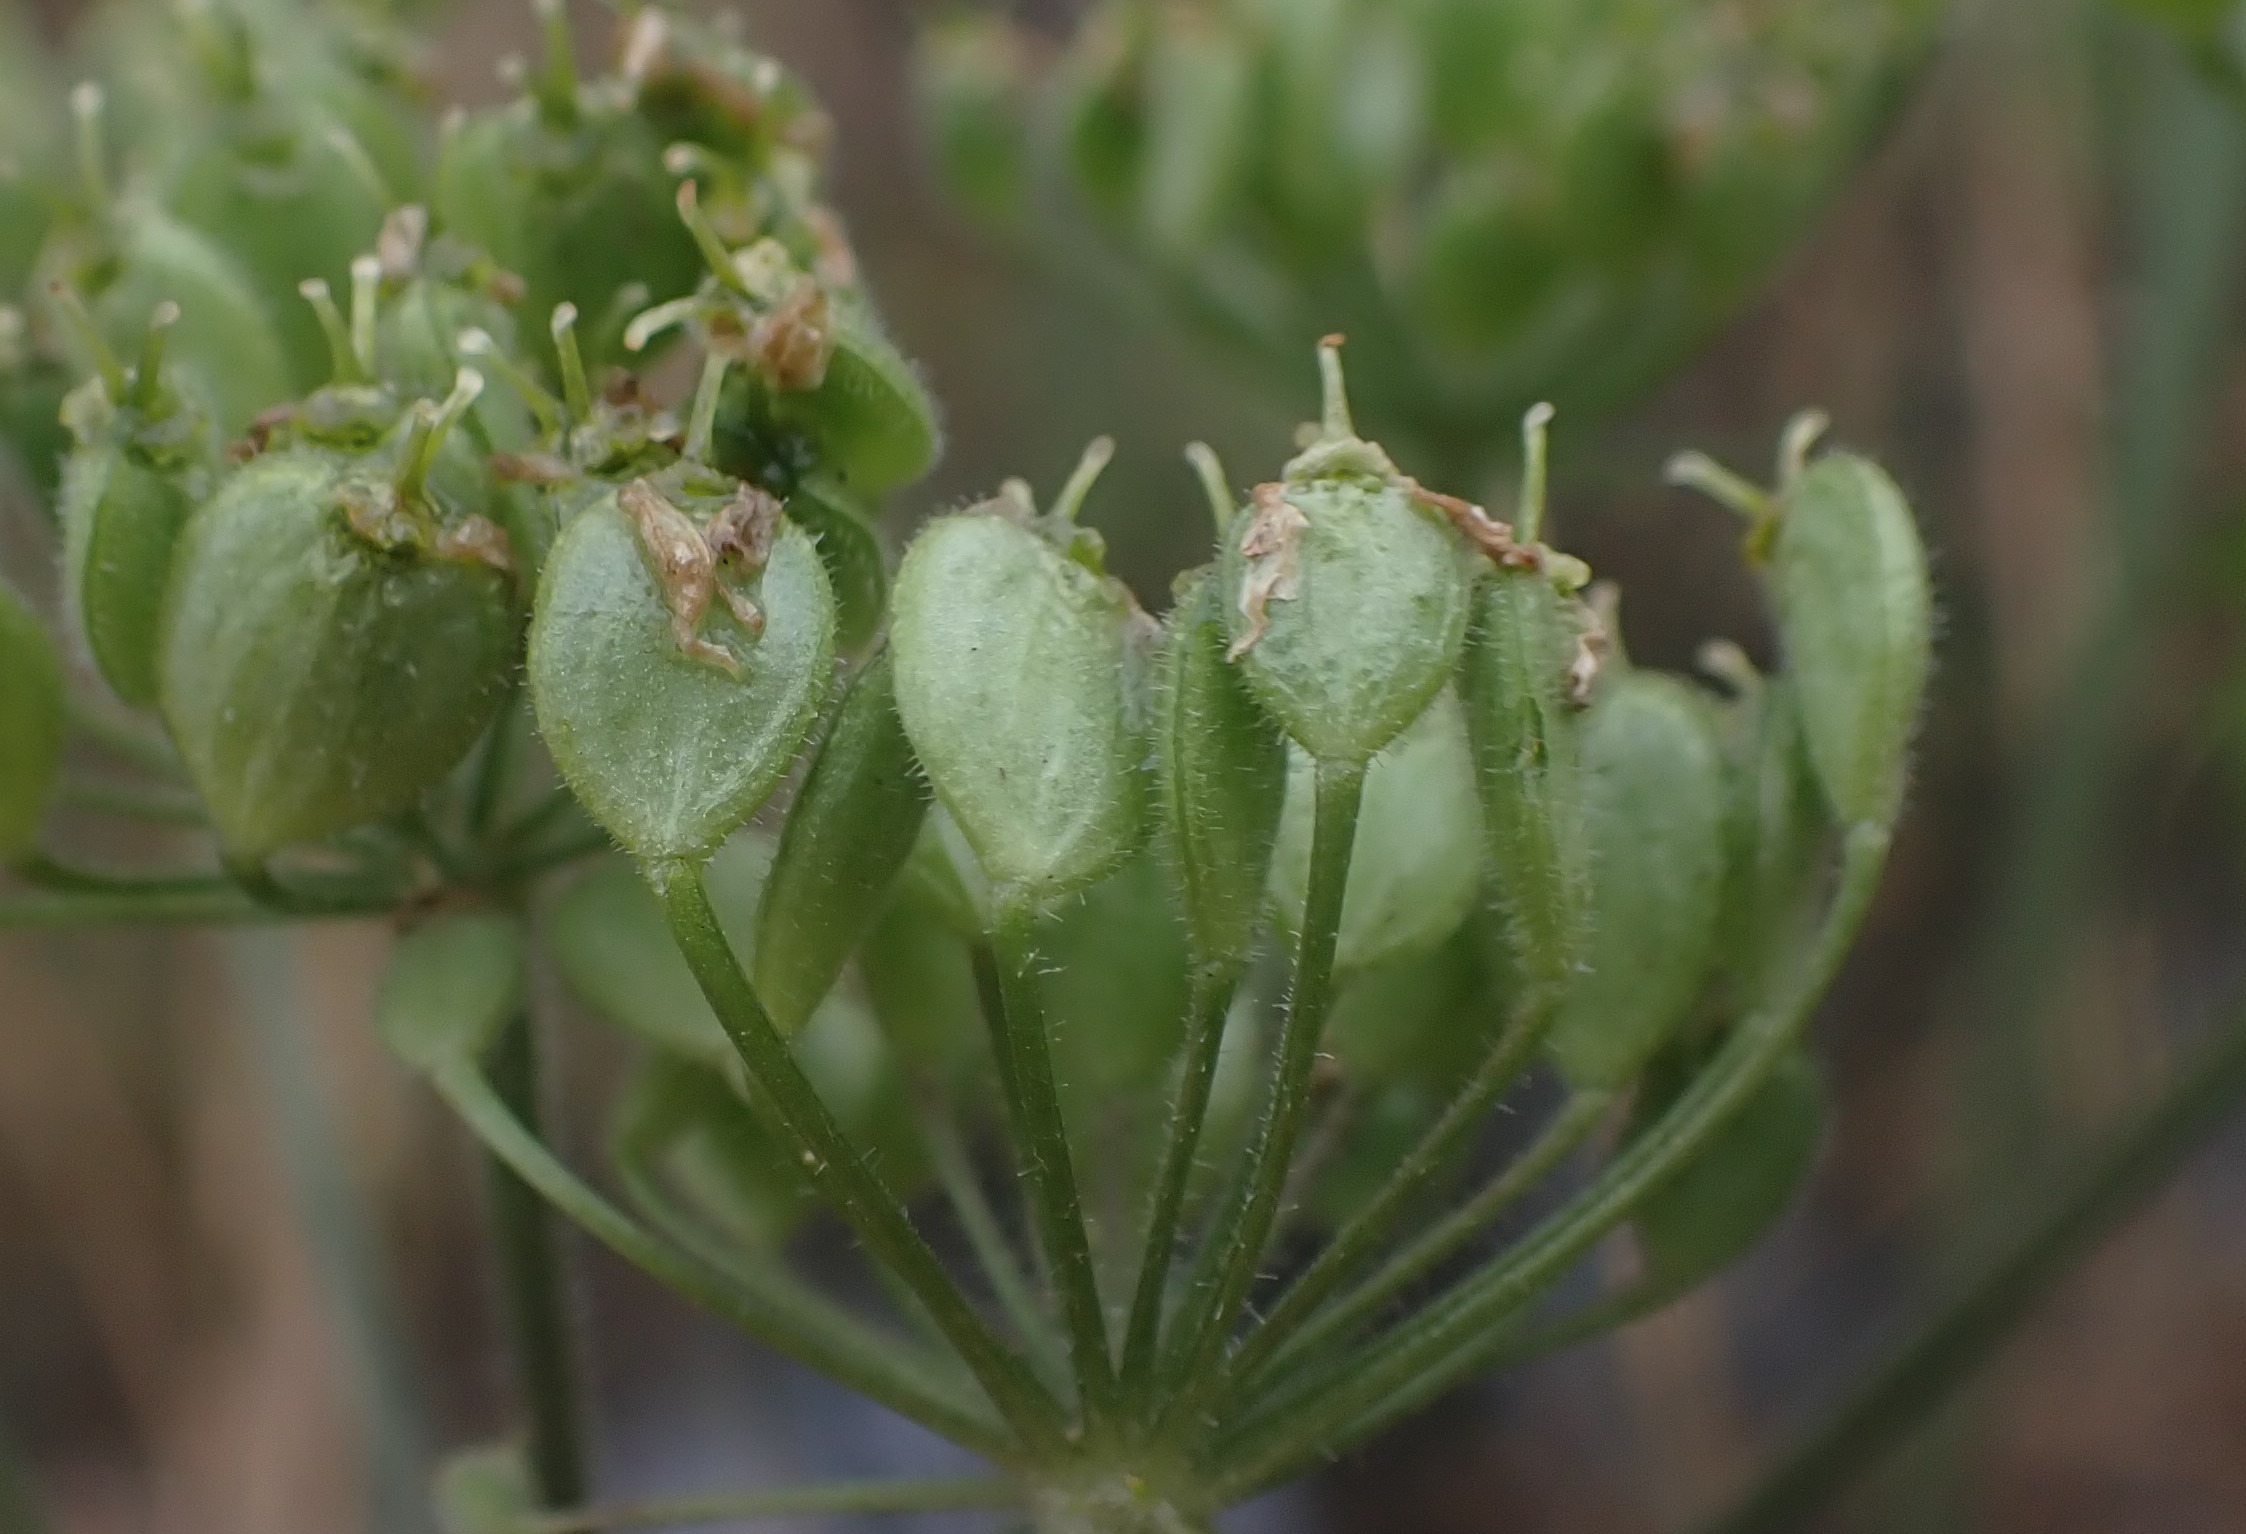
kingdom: Plantae
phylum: Tracheophyta
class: Magnoliopsida
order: Apiales
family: Apiaceae
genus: Heracleum
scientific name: Heracleum sphondylium
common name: Almindelig bjørneklo
